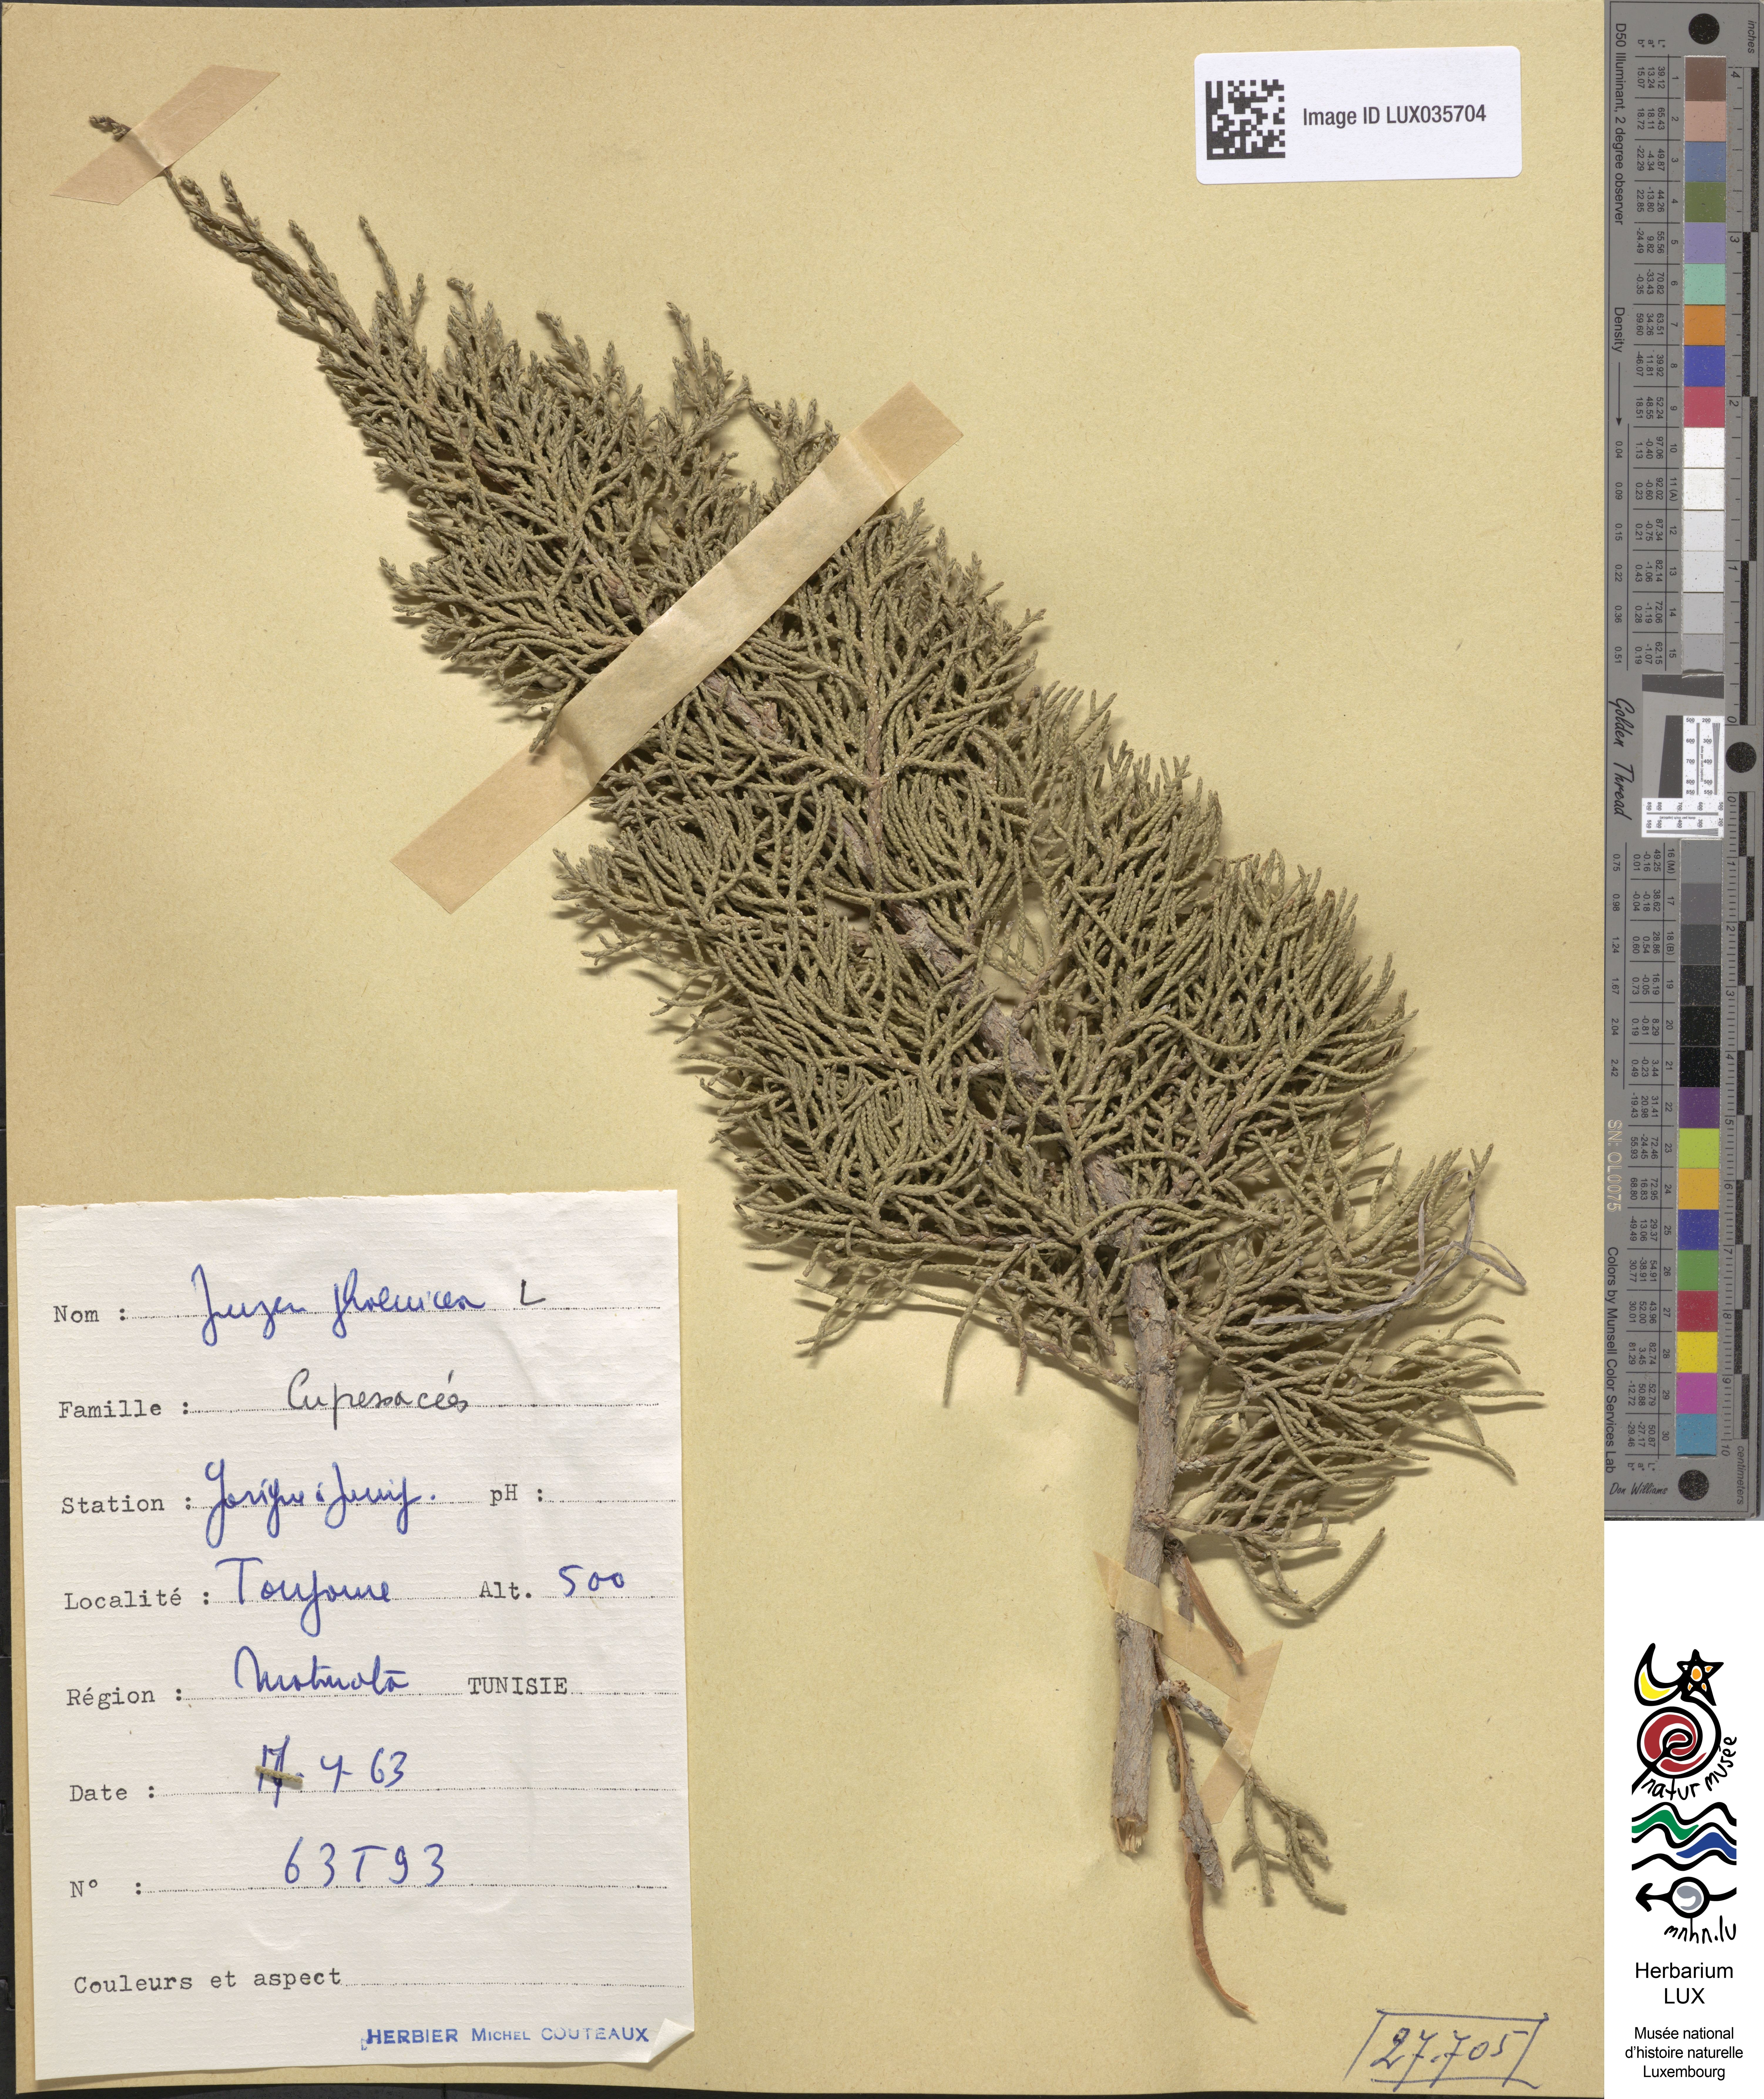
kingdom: Plantae
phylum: Tracheophyta
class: Pinopsida
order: Pinales
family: Cupressaceae
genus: Juniperus
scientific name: Juniperus phoenicea
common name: Phoenician juniper
